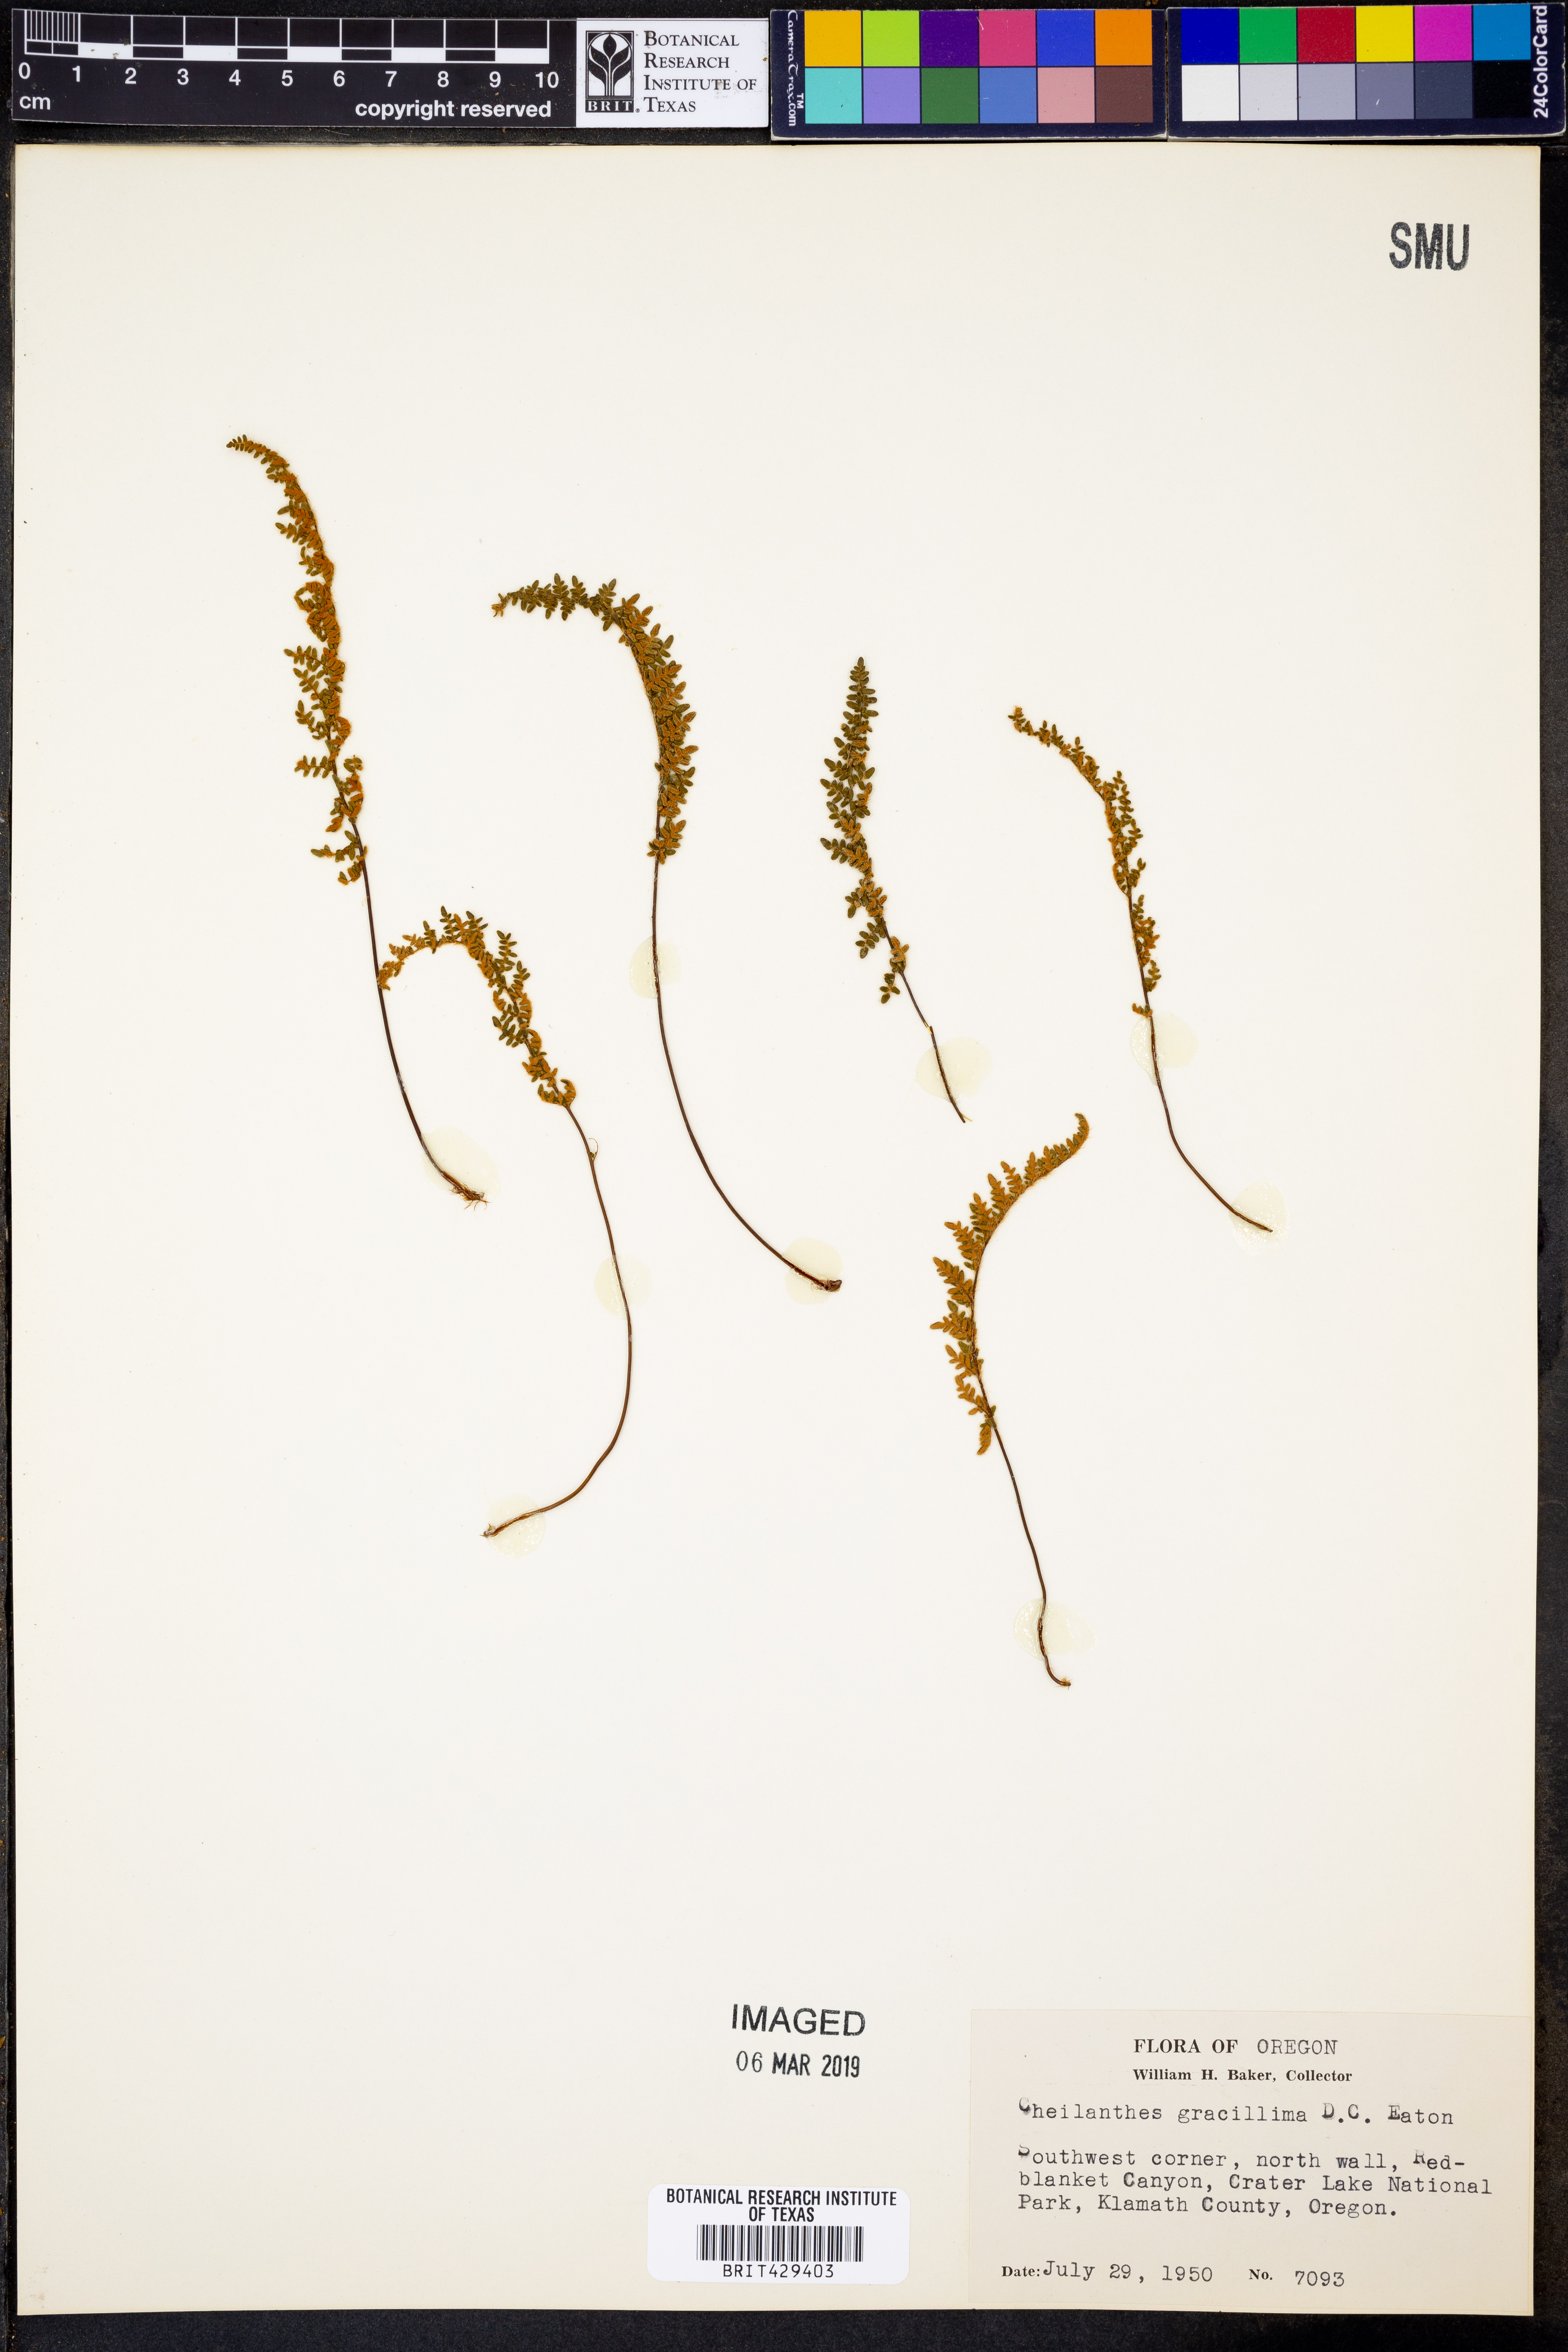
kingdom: Plantae
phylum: Tracheophyta
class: Polypodiopsida
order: Polypodiales
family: Pteridaceae
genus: Myriopteris
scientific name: Myriopteris gracillima
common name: Lace fern
